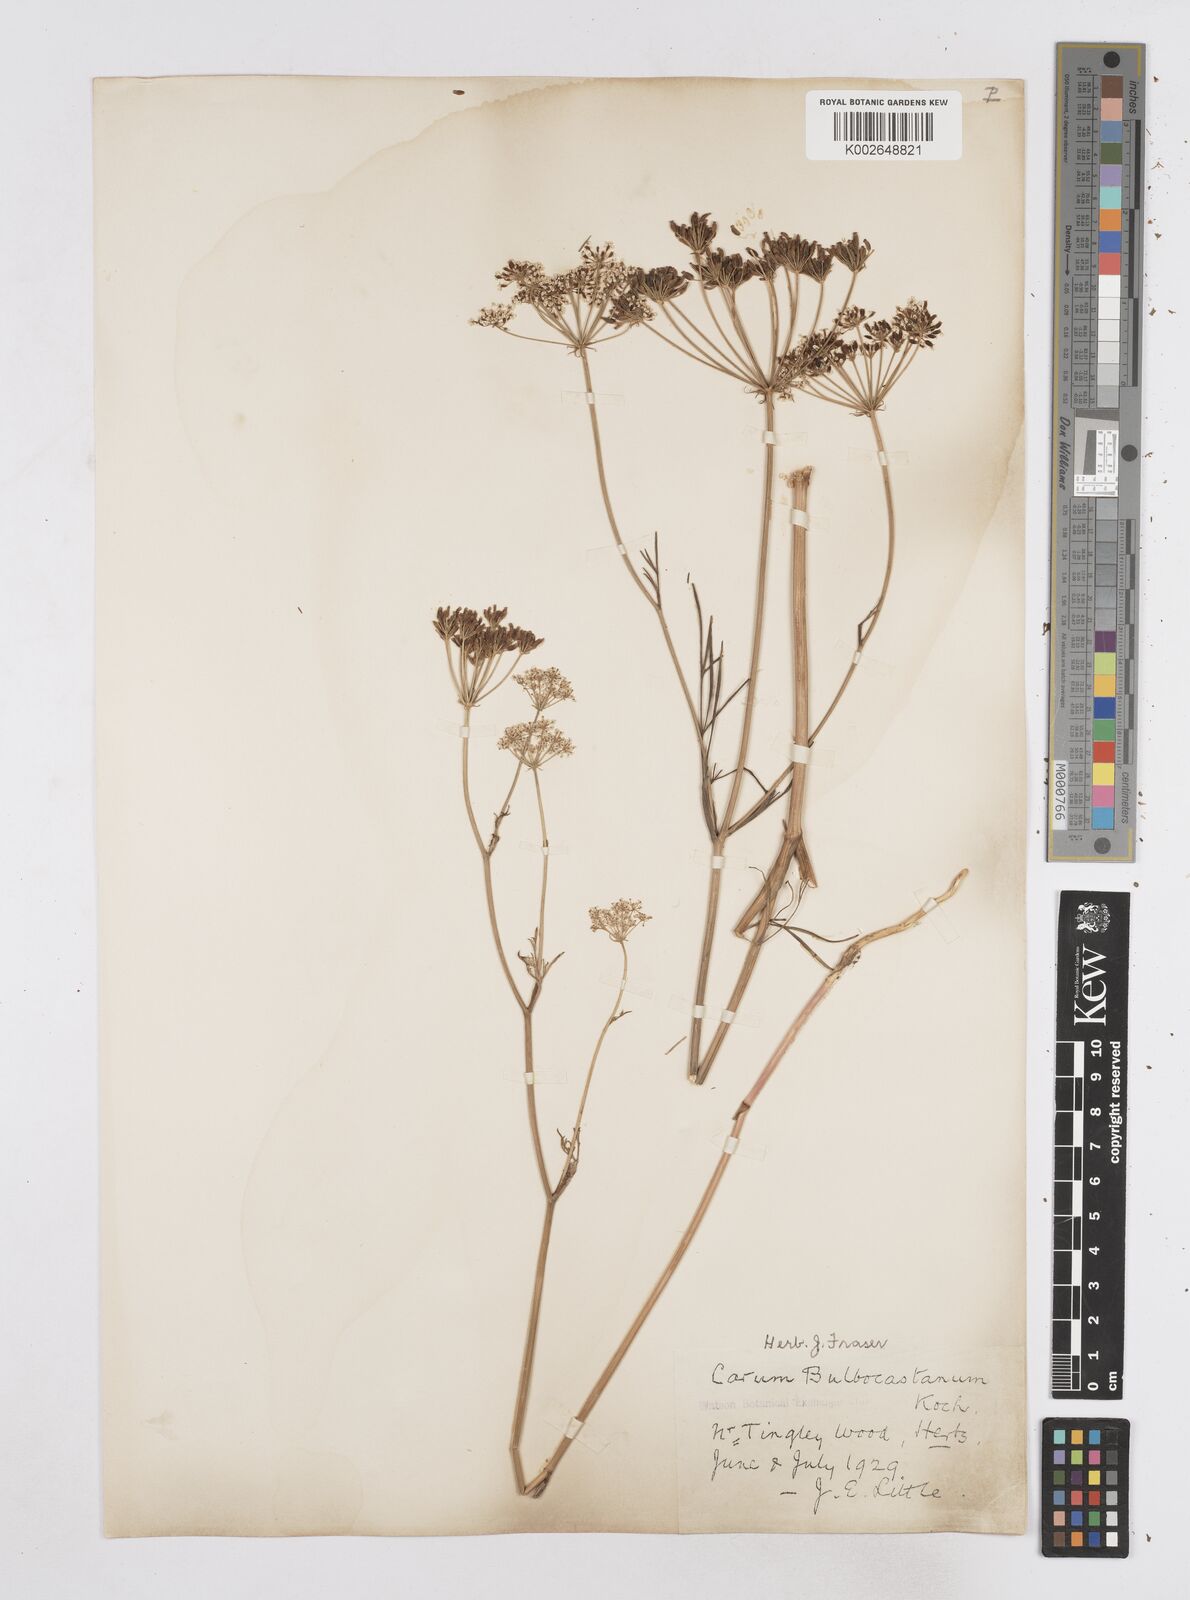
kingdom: Plantae
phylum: Tracheophyta
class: Magnoliopsida
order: Apiales
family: Apiaceae
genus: Bunium
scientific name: Bunium bulbocastanum
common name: Great pignut
